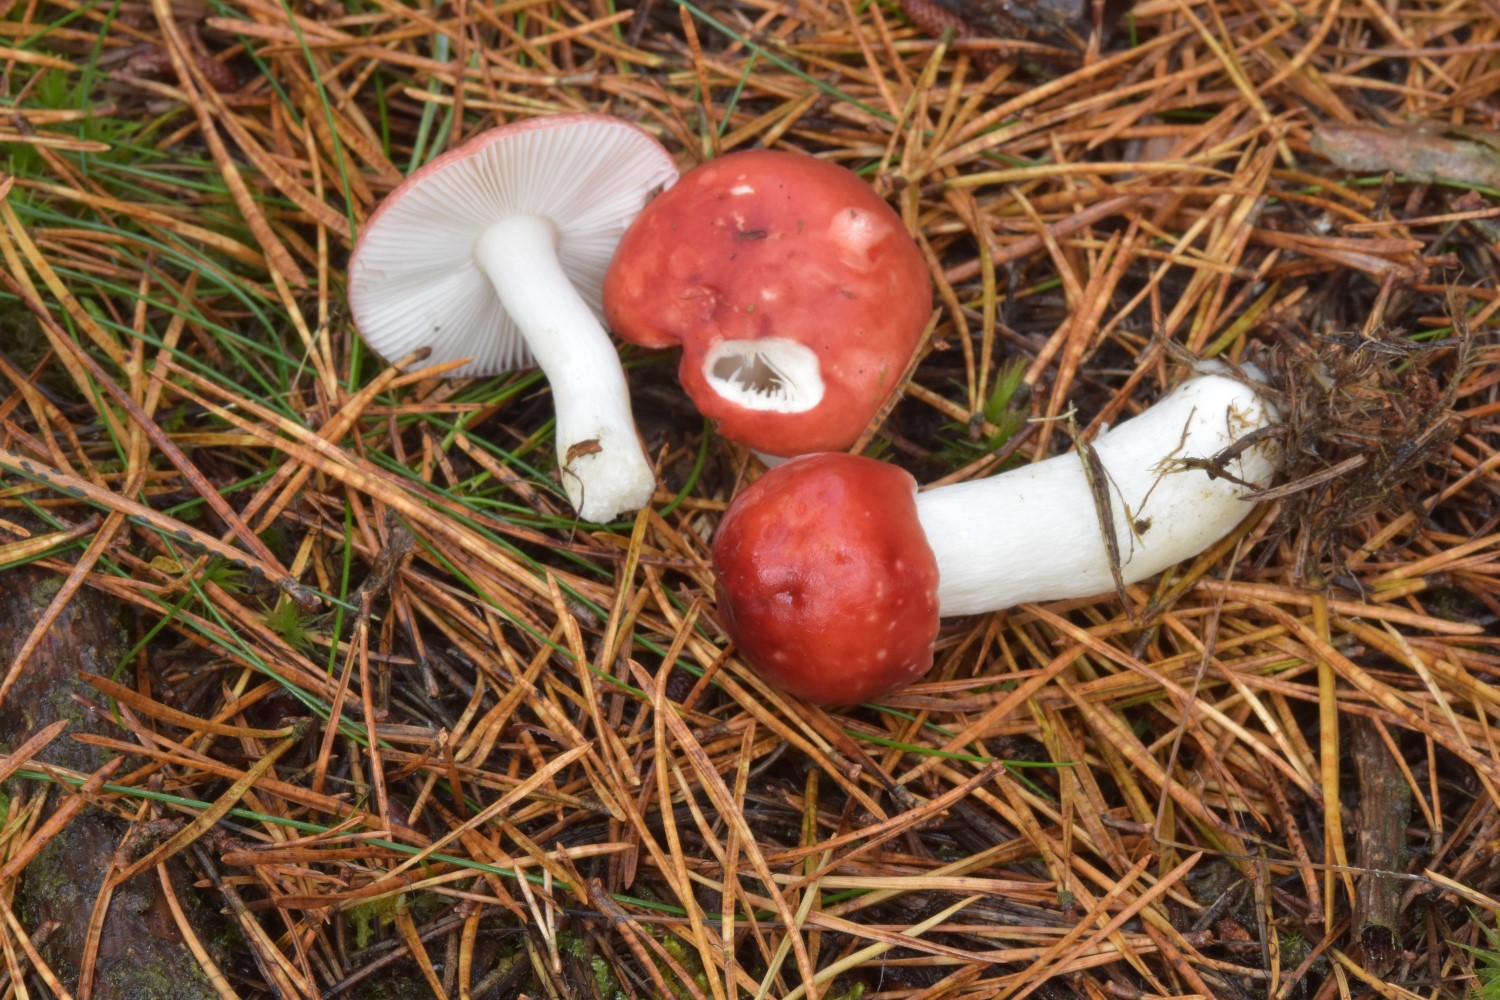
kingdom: Fungi
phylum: Basidiomycota
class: Agaricomycetes
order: Russulales
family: Russulaceae
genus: Russula
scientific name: Russula emetica
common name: stor gift-skørhat
